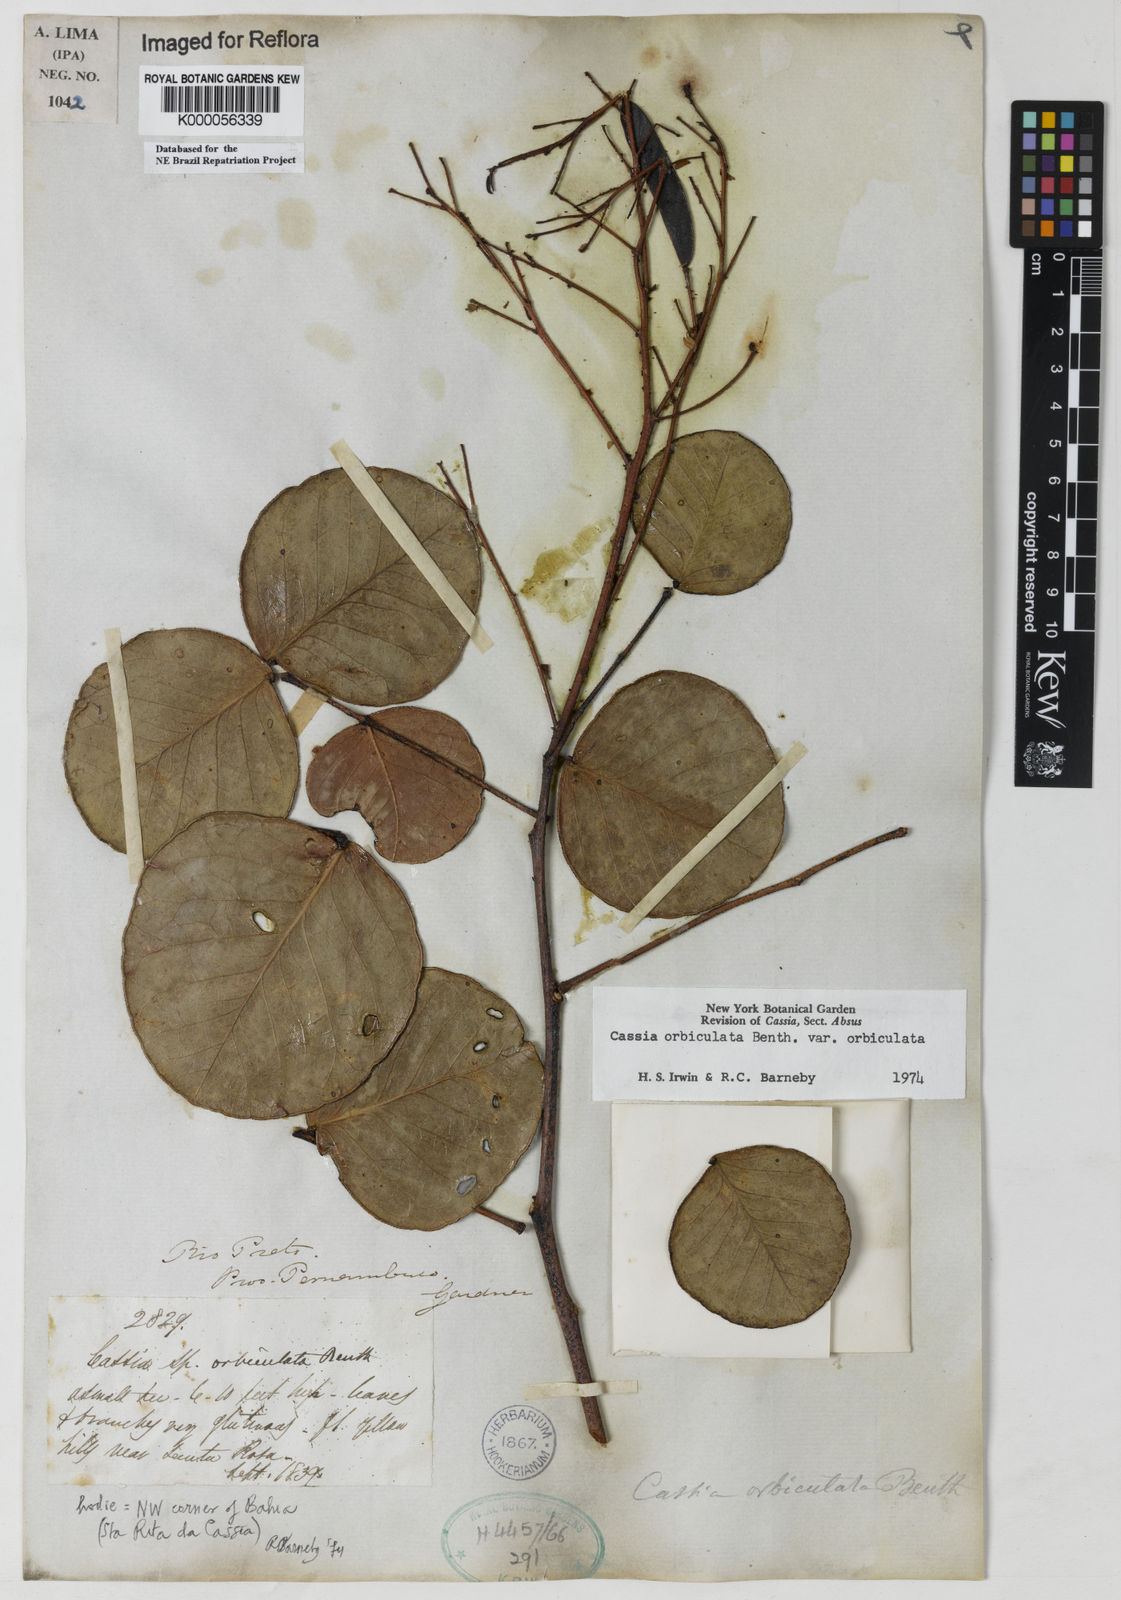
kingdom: Plantae
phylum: Tracheophyta
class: Magnoliopsida
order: Fabales
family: Fabaceae
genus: Chamaecrista
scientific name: Chamaecrista orbiculata
